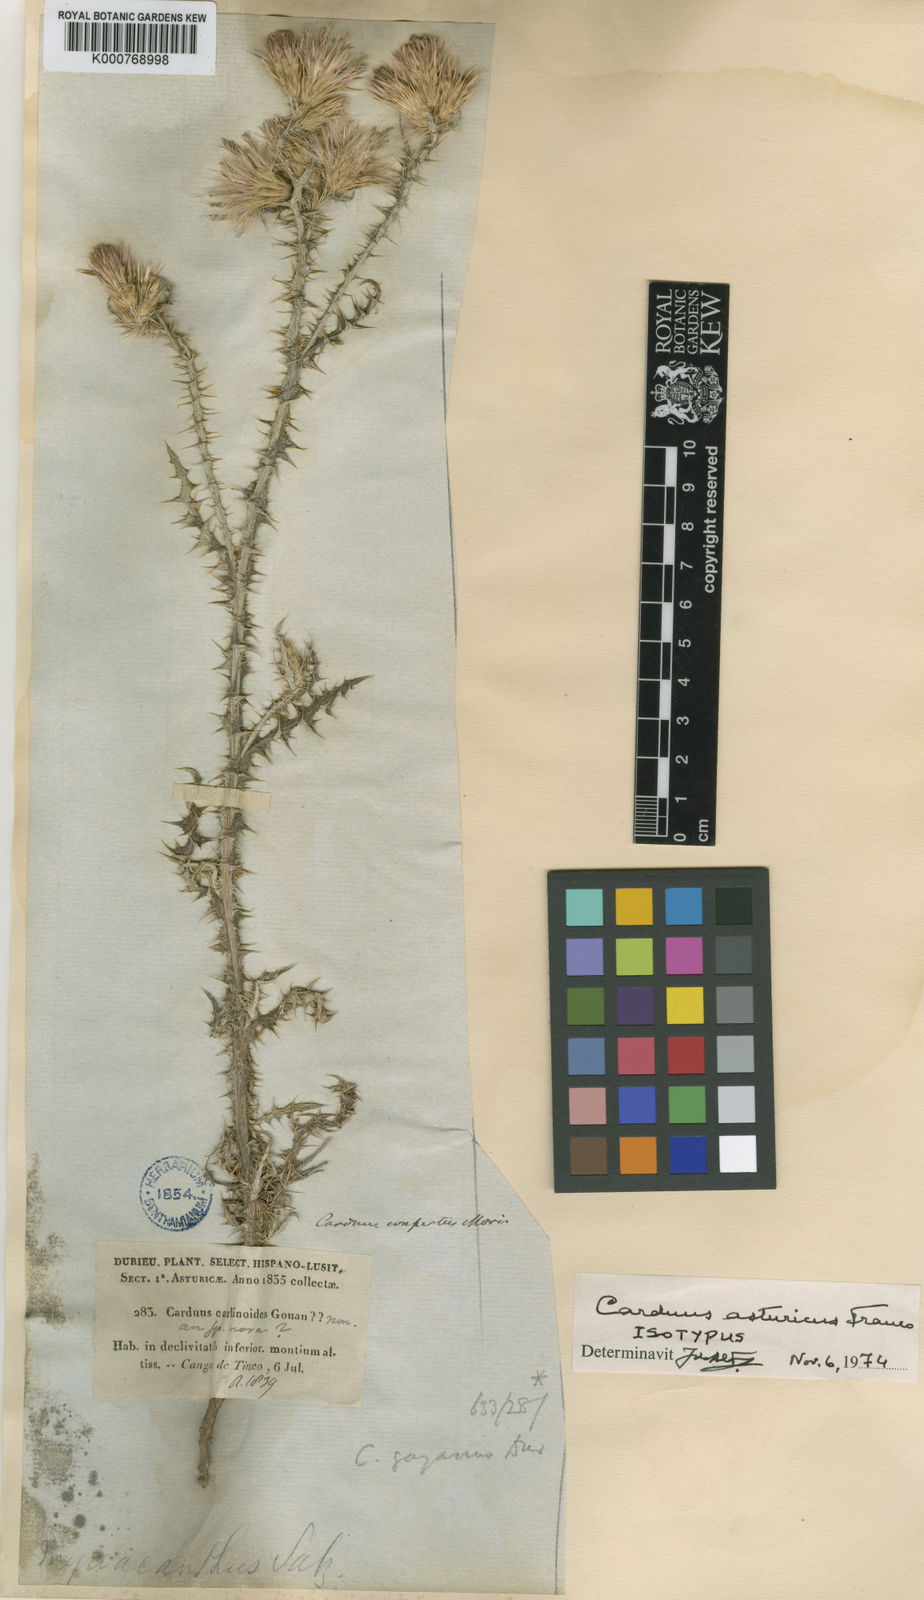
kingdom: Plantae
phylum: Tracheophyta
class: Magnoliopsida
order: Asterales
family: Asteraceae
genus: Carduus
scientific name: Carduus asturicus
